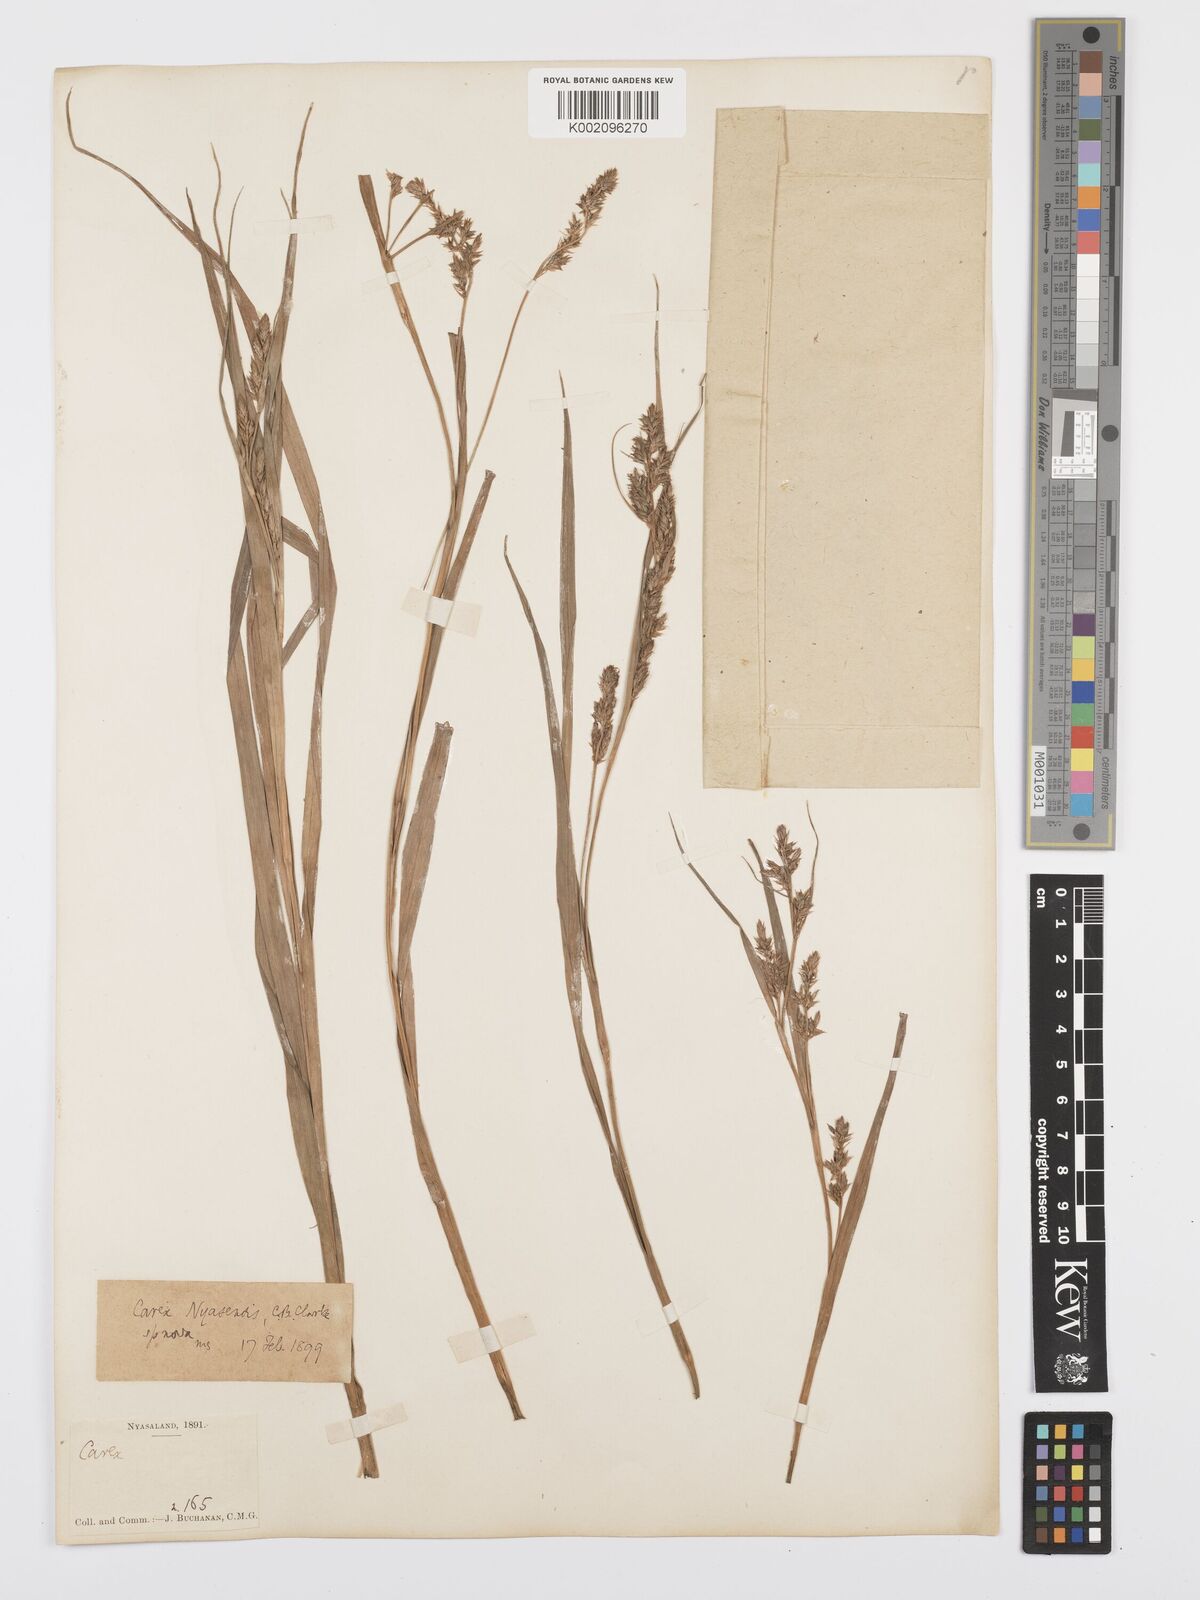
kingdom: Plantae
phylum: Tracheophyta
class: Liliopsida
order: Poales
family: Cyperaceae
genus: Carex
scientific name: Carex spicatopaniculata
